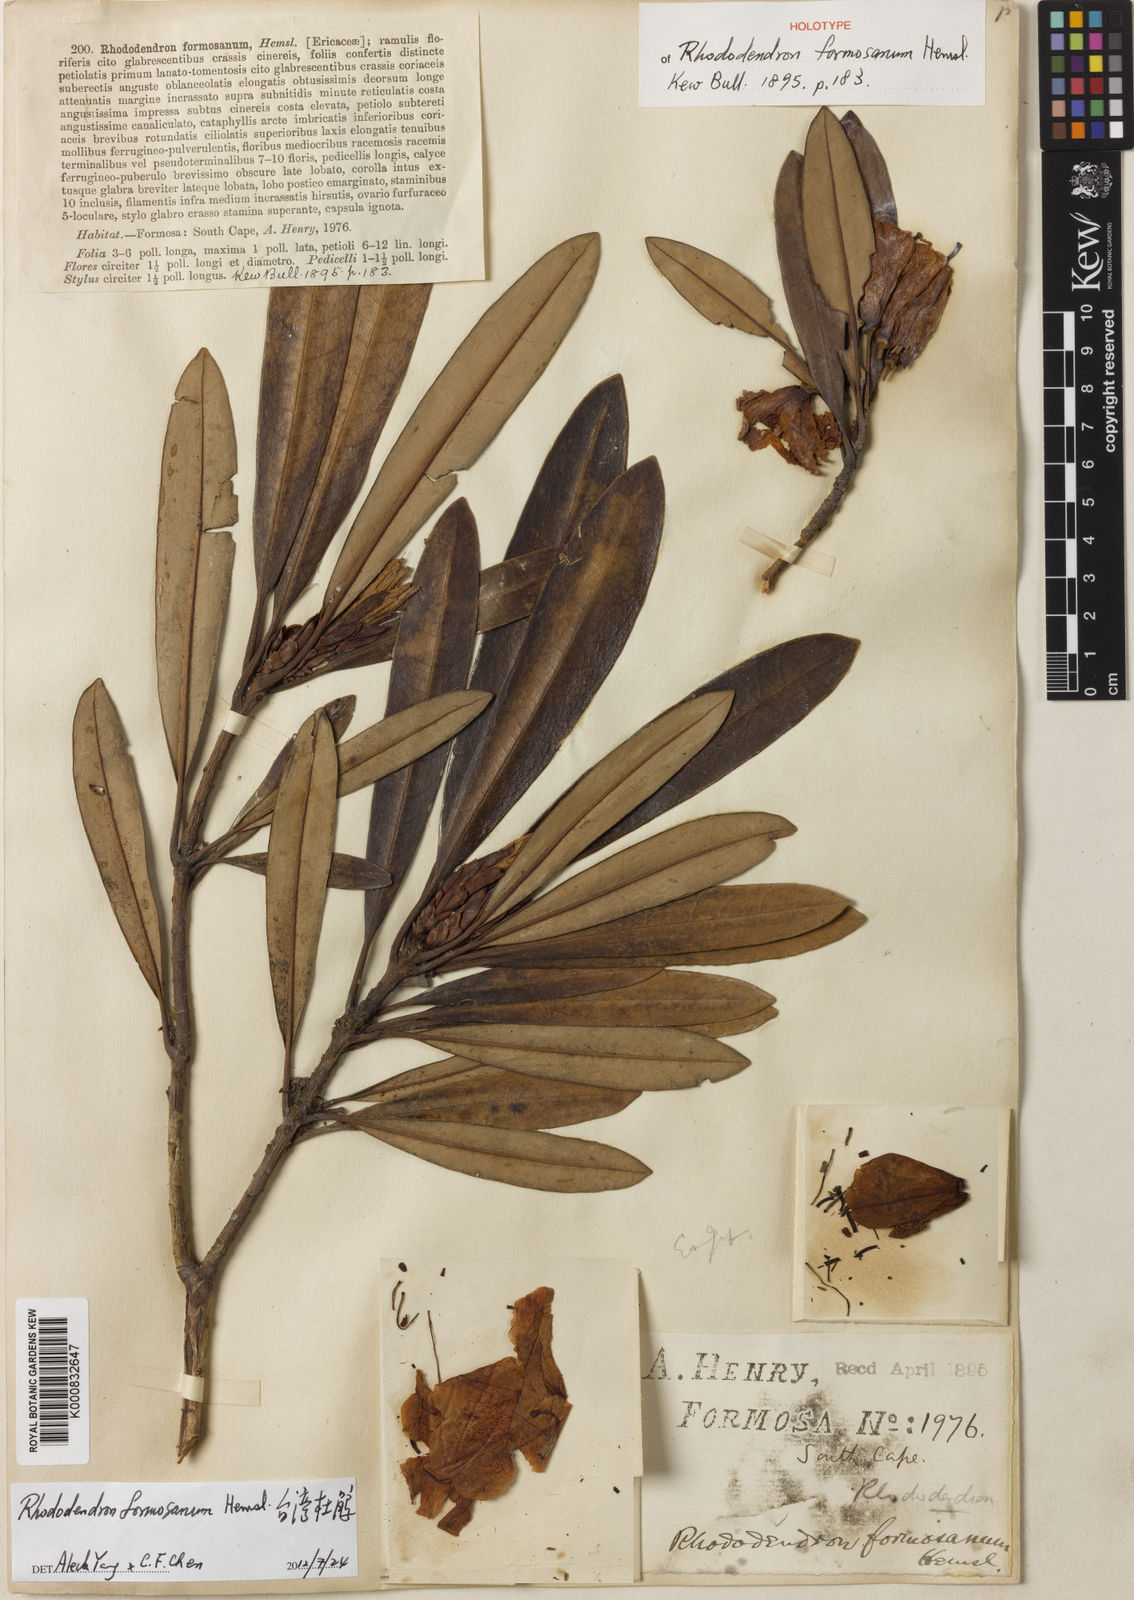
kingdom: Plantae
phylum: Tracheophyta
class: Magnoliopsida
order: Ericales
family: Ericaceae
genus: Rhododendron
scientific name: Rhododendron formosanum
